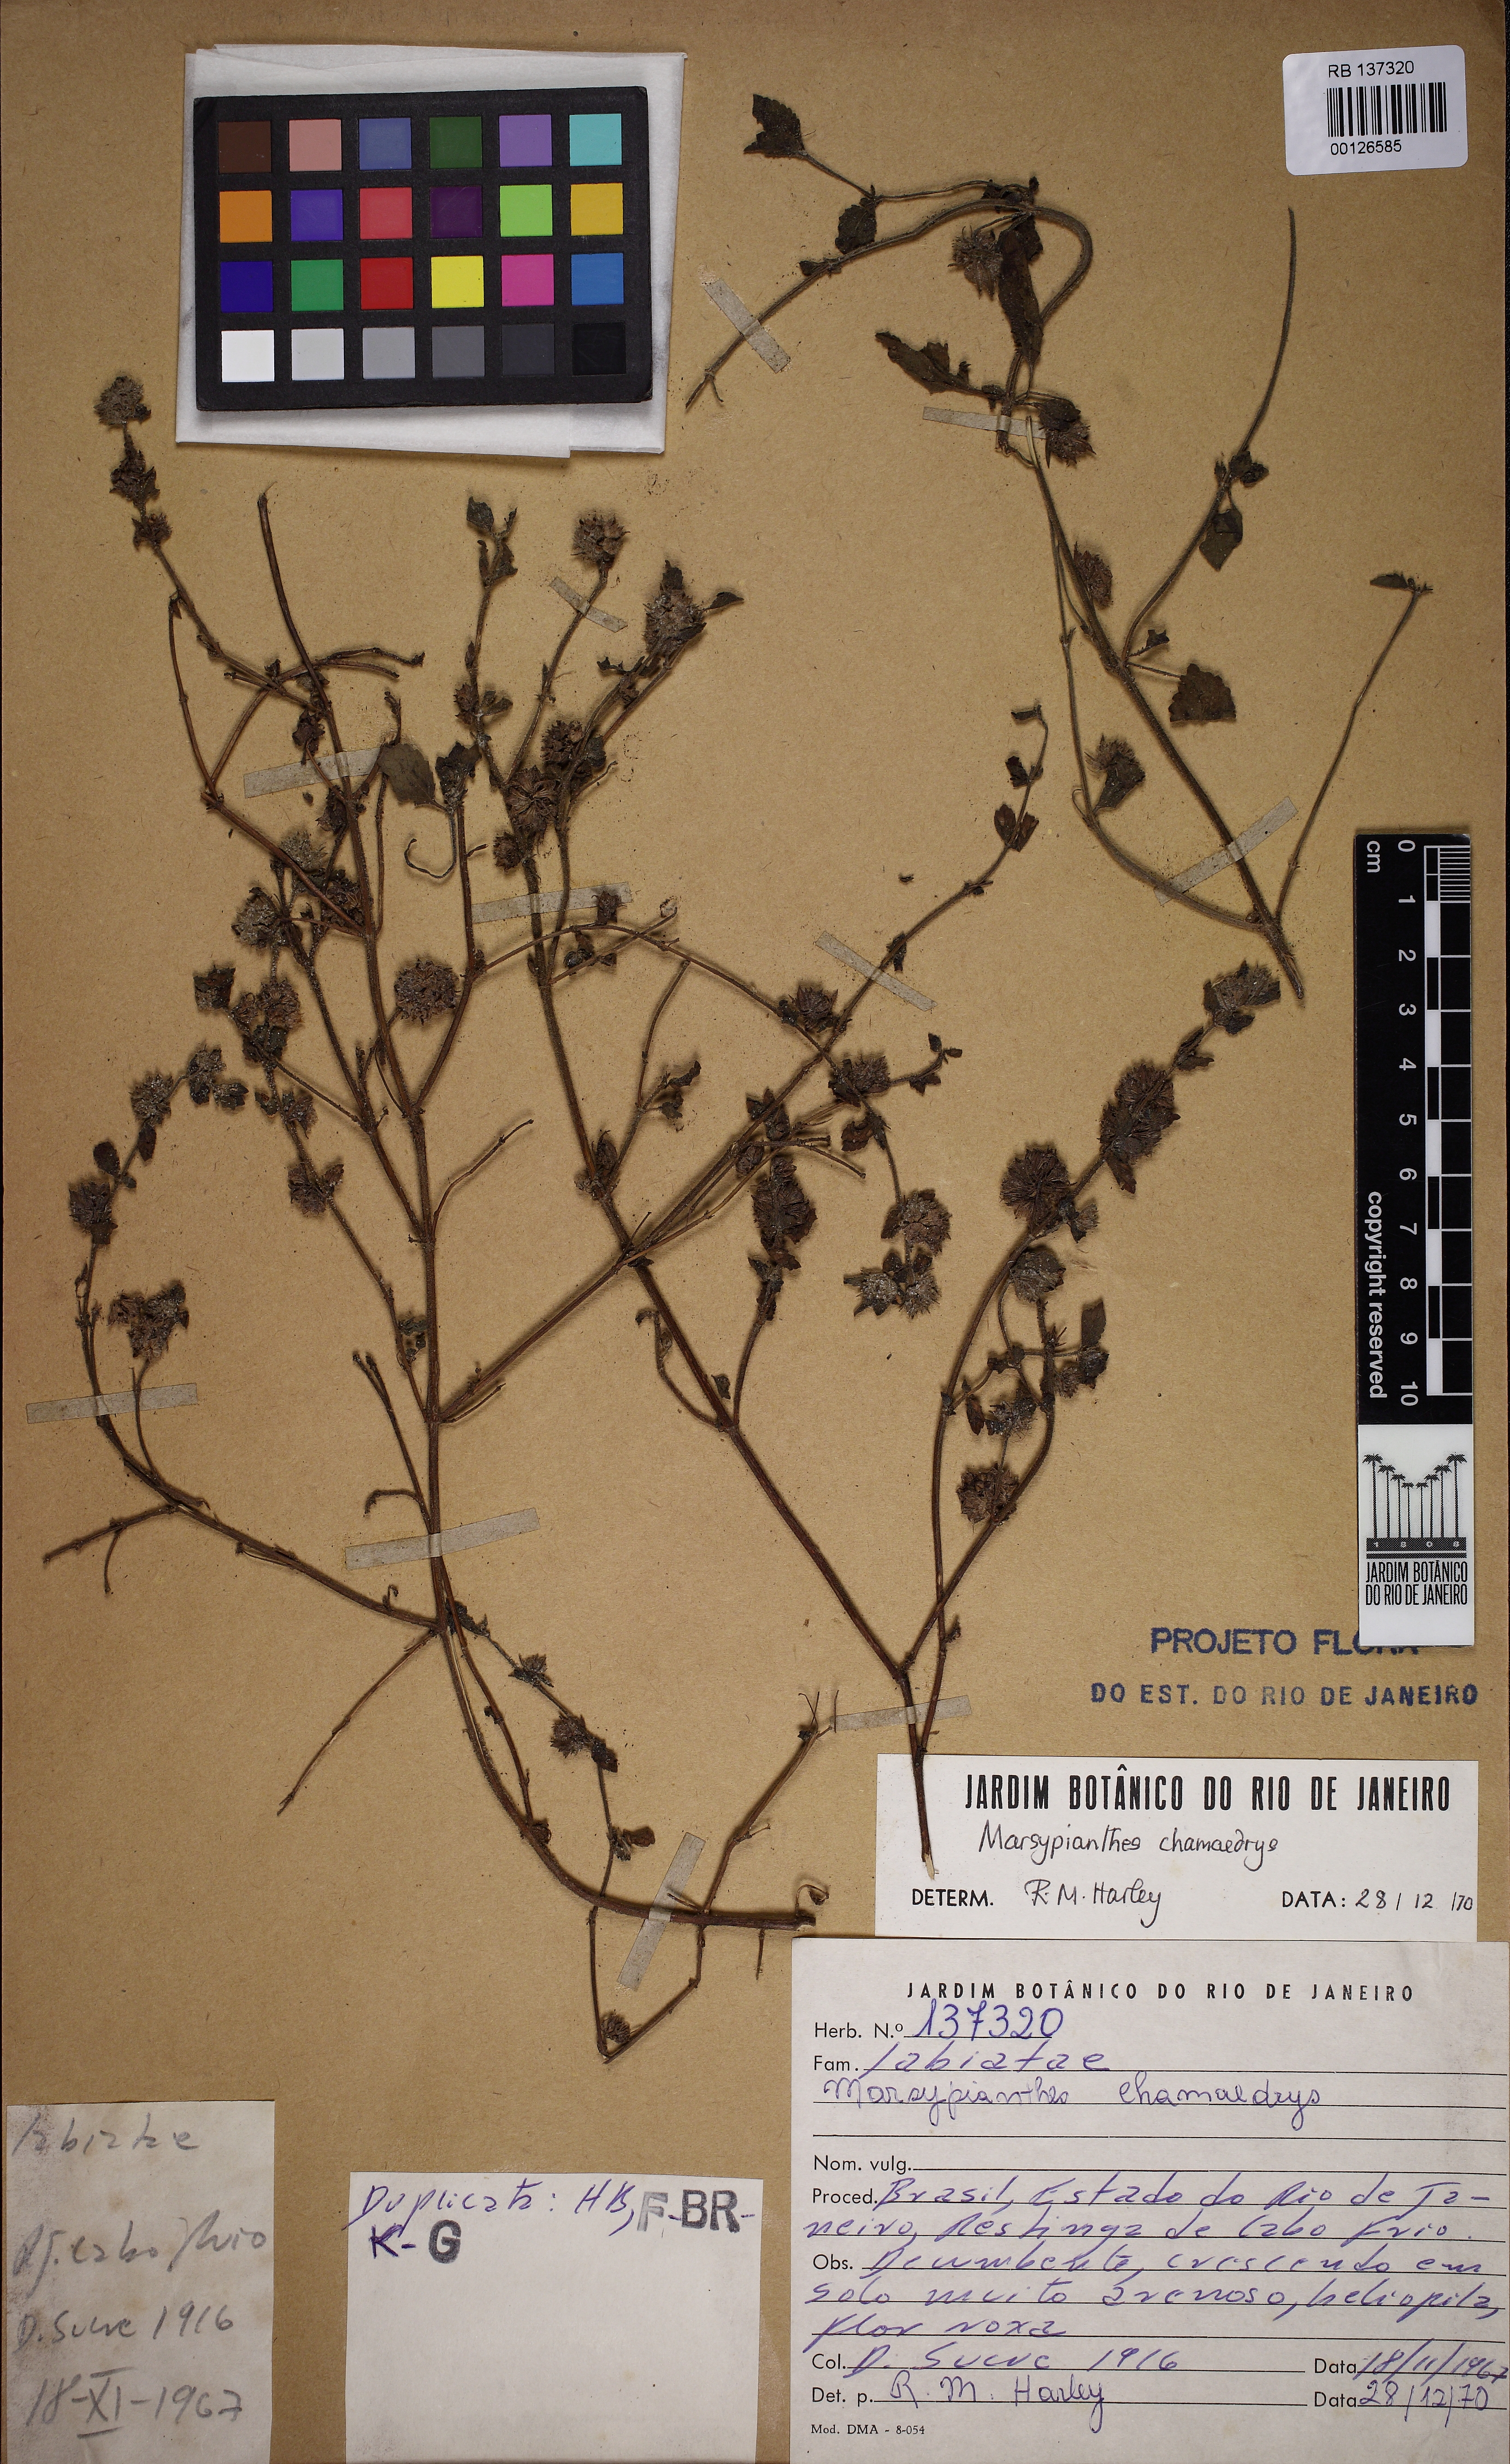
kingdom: Plantae
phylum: Tracheophyta
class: Magnoliopsida
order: Lamiales
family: Lamiaceae
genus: Marsypianthes
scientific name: Marsypianthes chamaedrys
